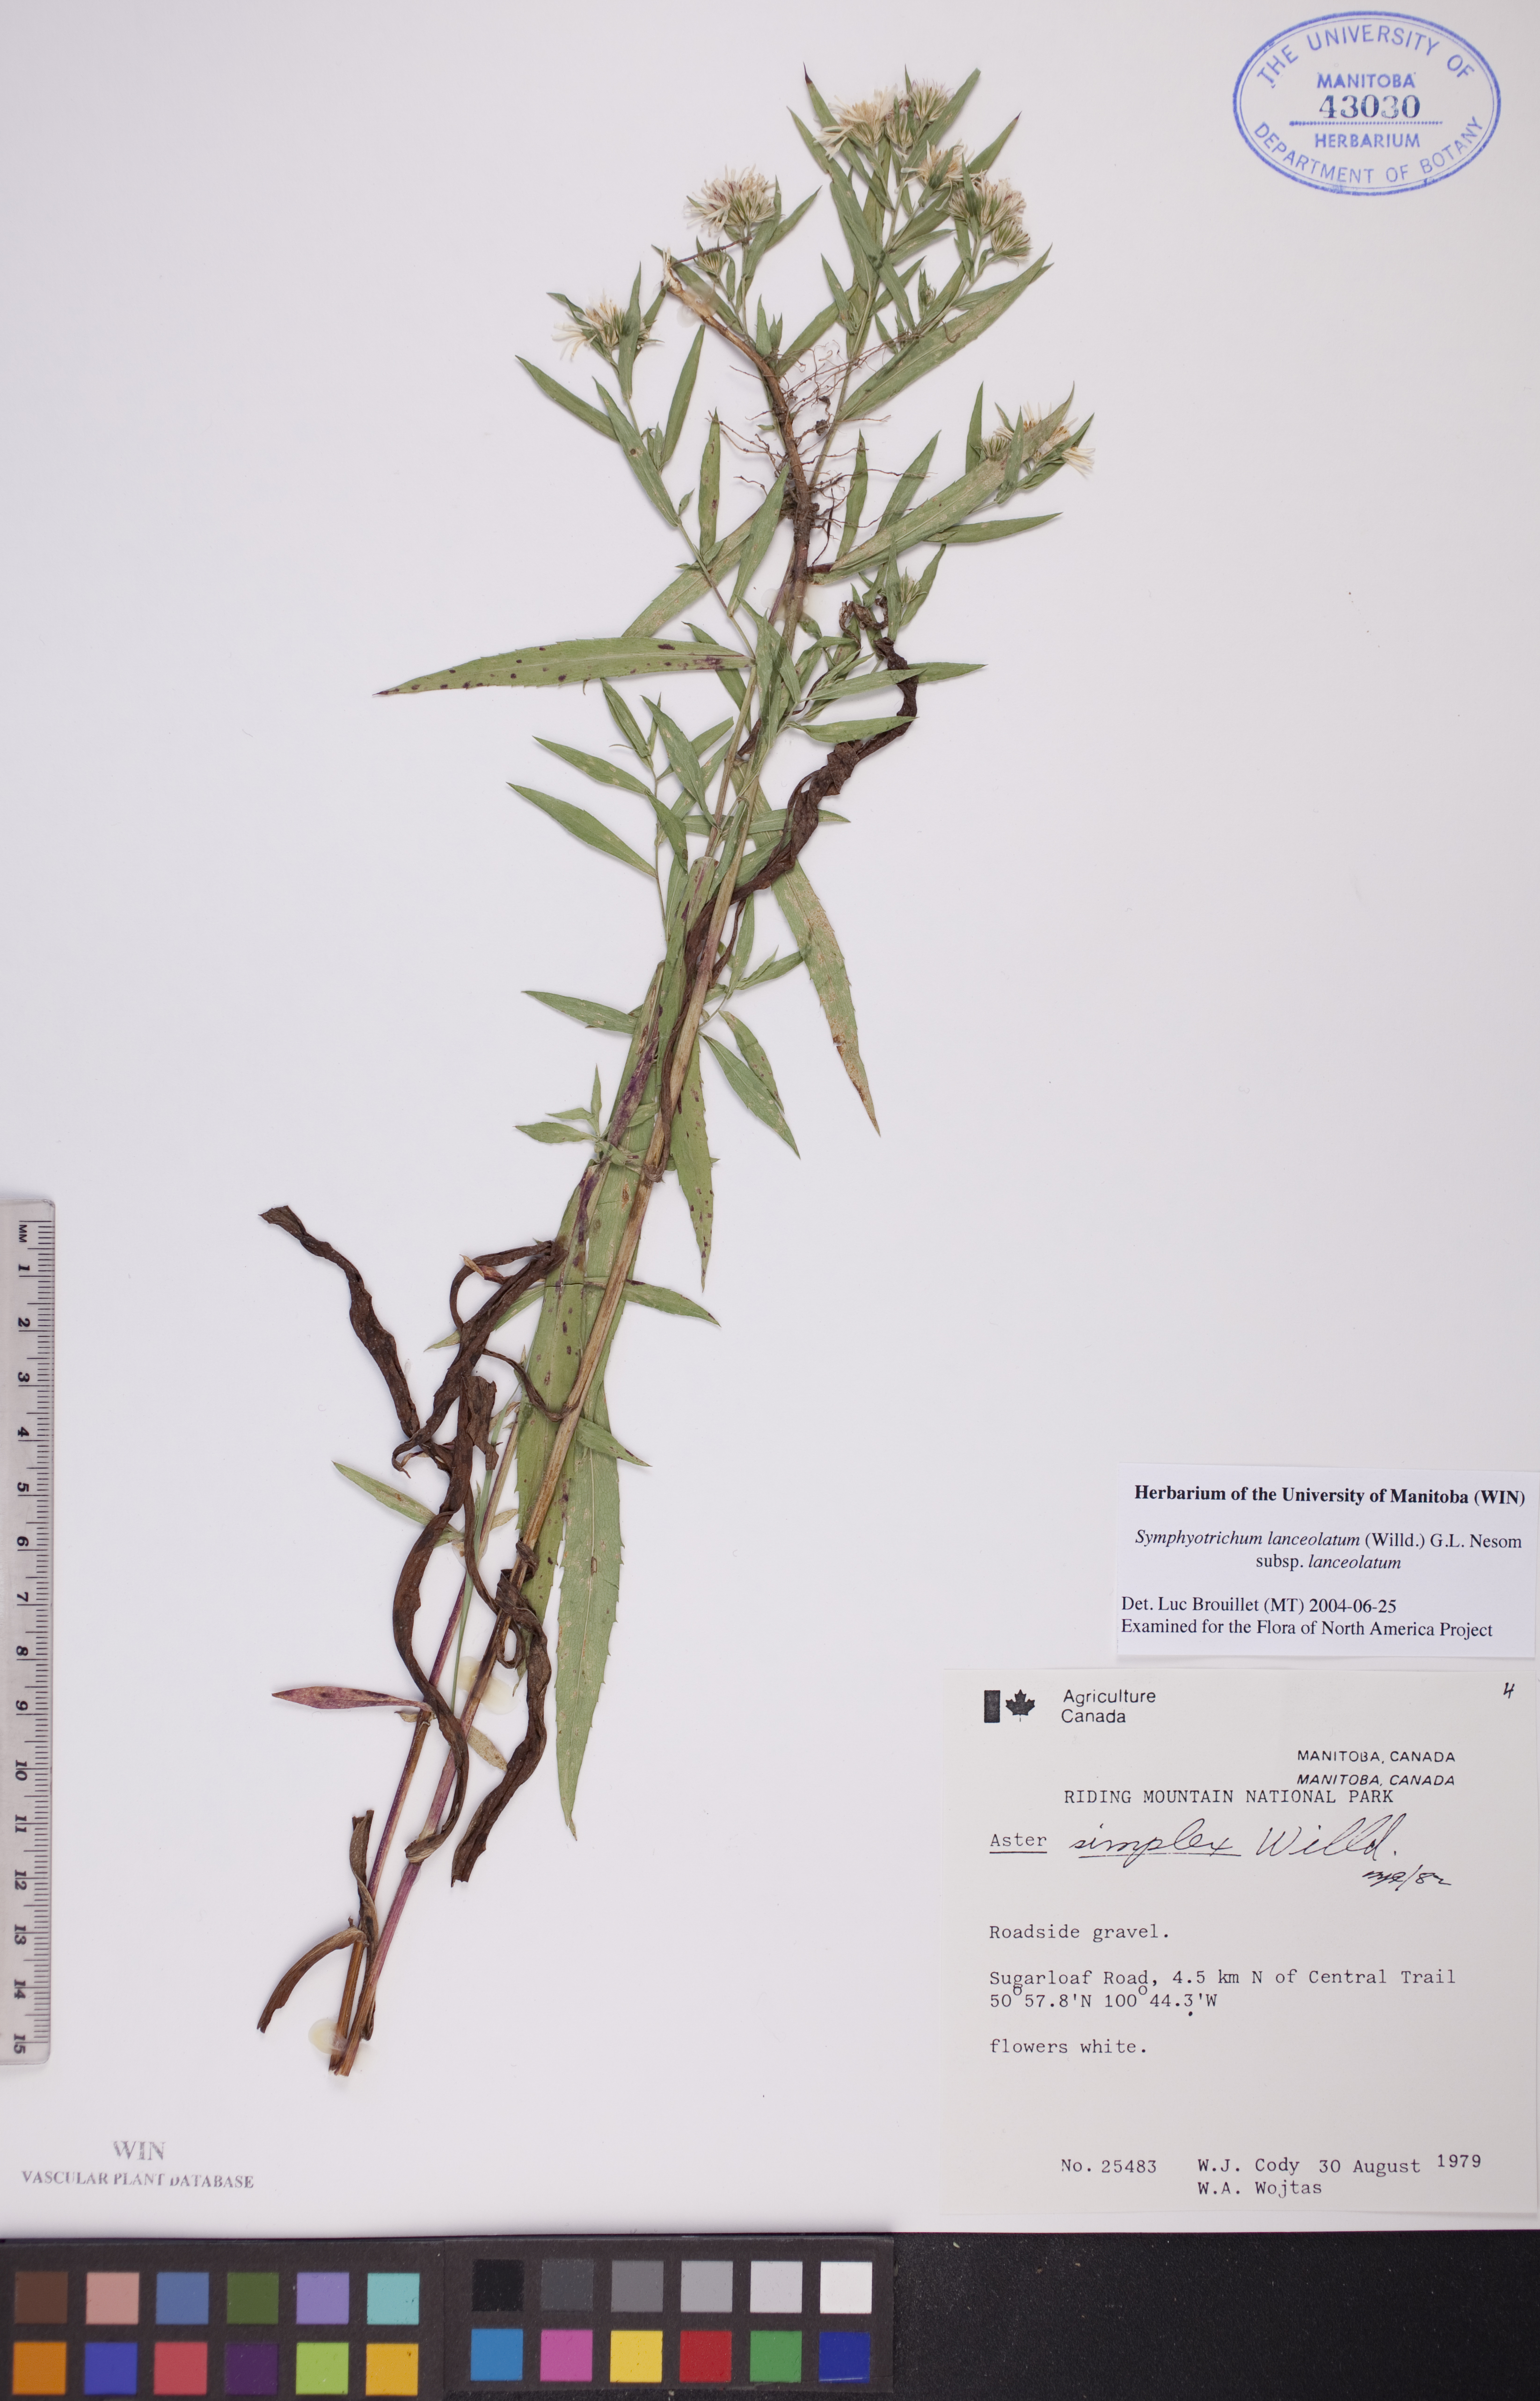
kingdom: Plantae
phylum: Tracheophyta
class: Magnoliopsida
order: Asterales
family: Asteraceae
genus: Symphyotrichum
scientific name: Symphyotrichum lanceolatum
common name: Panicled aster
